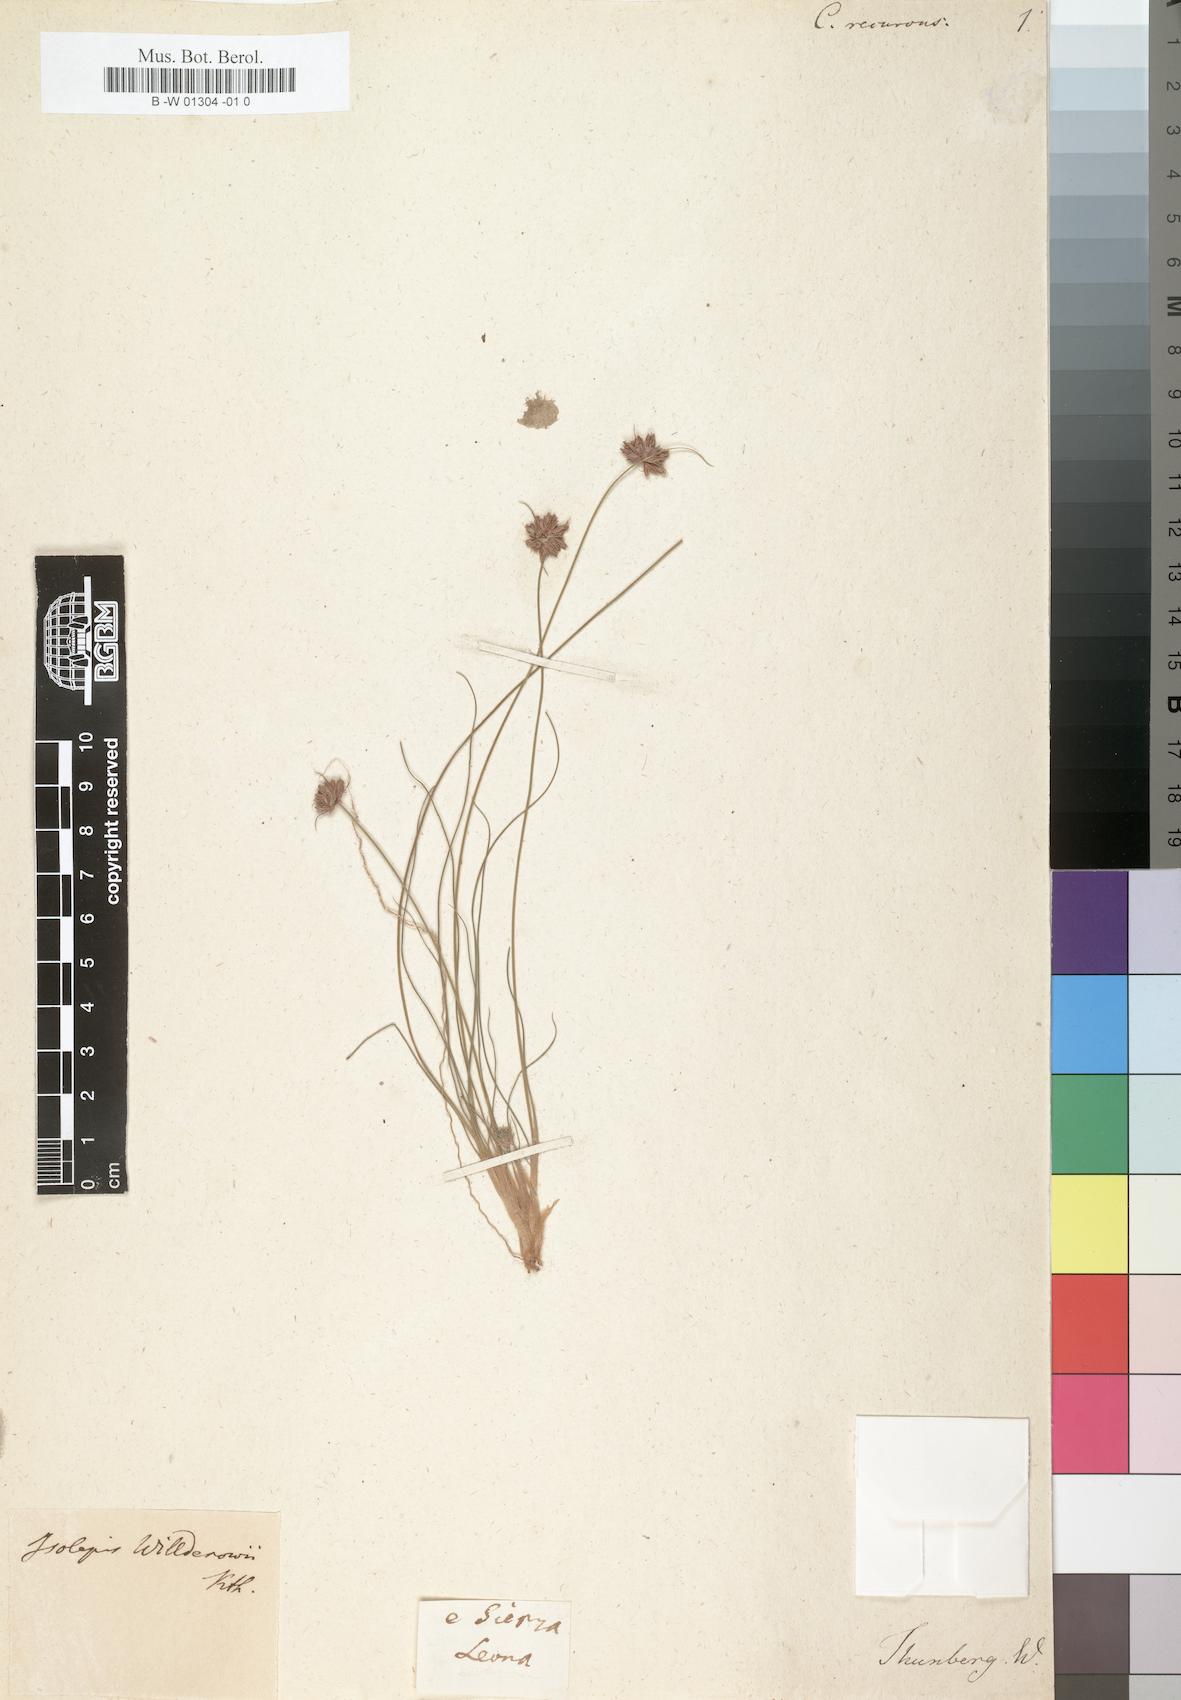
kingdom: Plantae
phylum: Tracheophyta
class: Liliopsida
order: Poales
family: Cyperaceae
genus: Cyperus
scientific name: Cyperus recurvus
